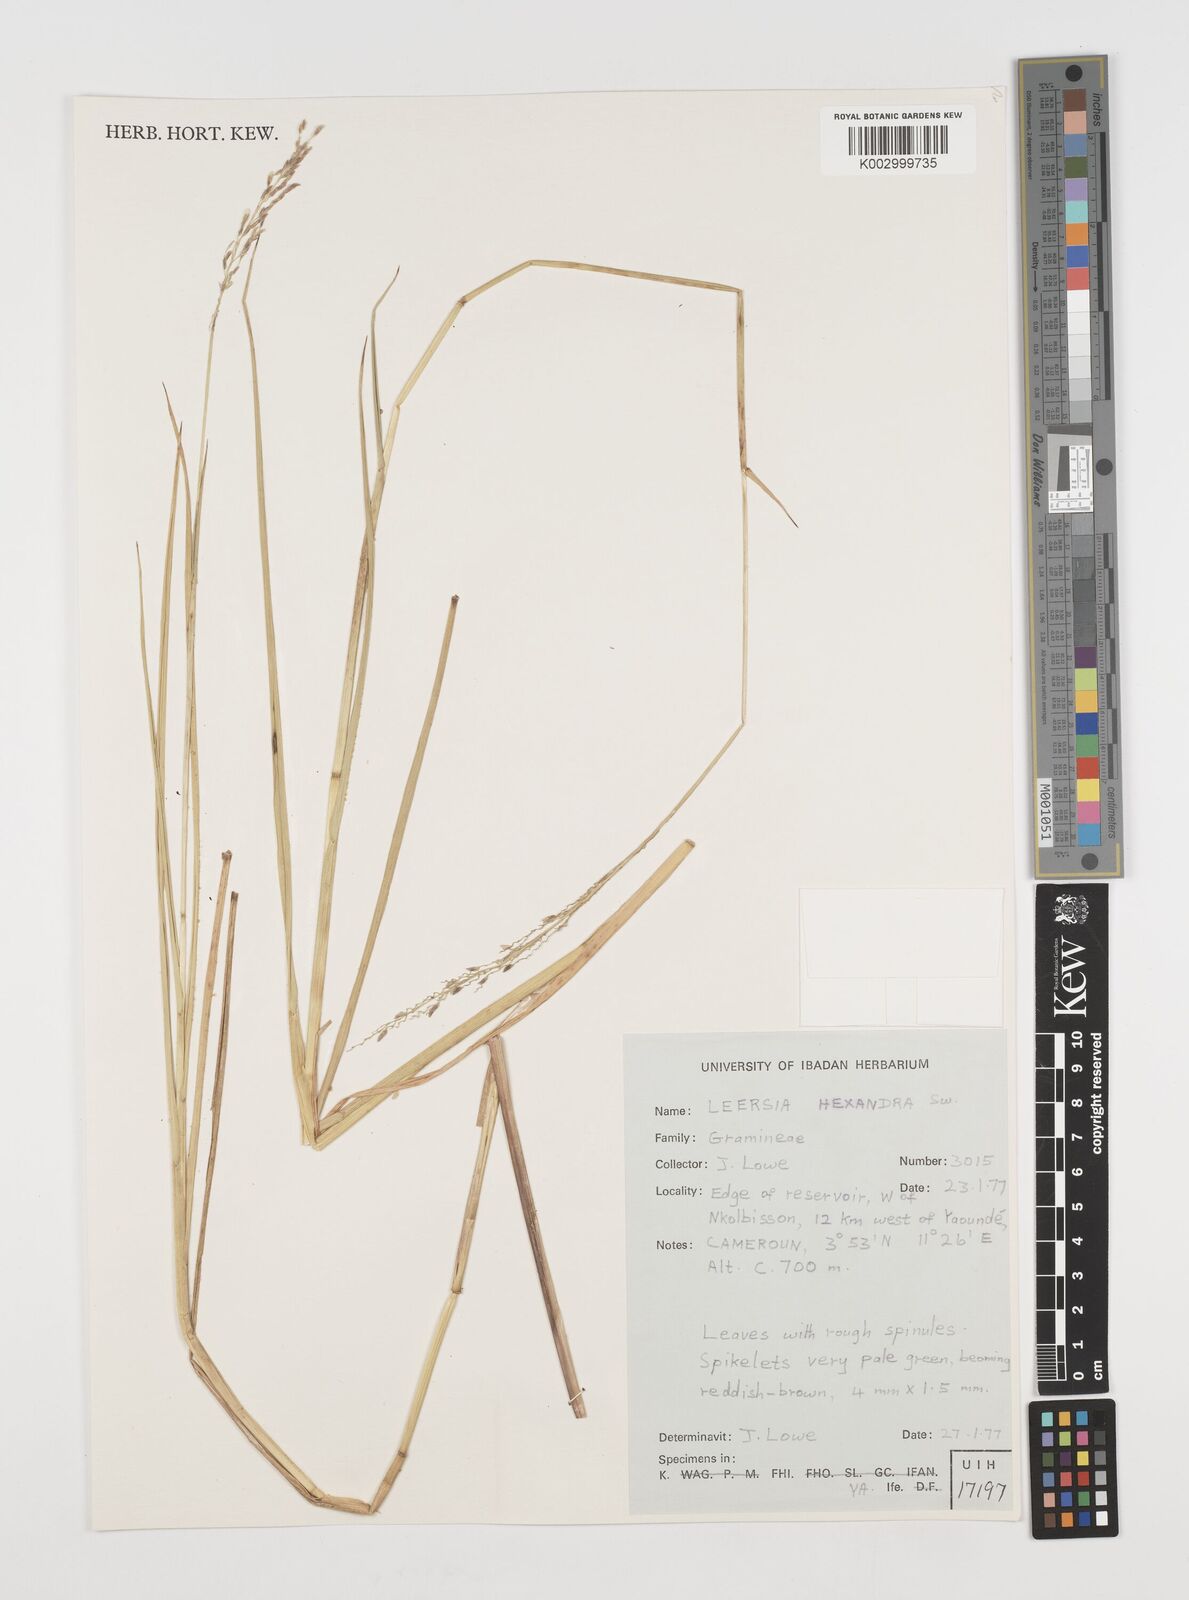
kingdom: Plantae
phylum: Tracheophyta
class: Liliopsida
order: Poales
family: Poaceae
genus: Leersia
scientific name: Leersia hexandra
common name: Southern cut grass
